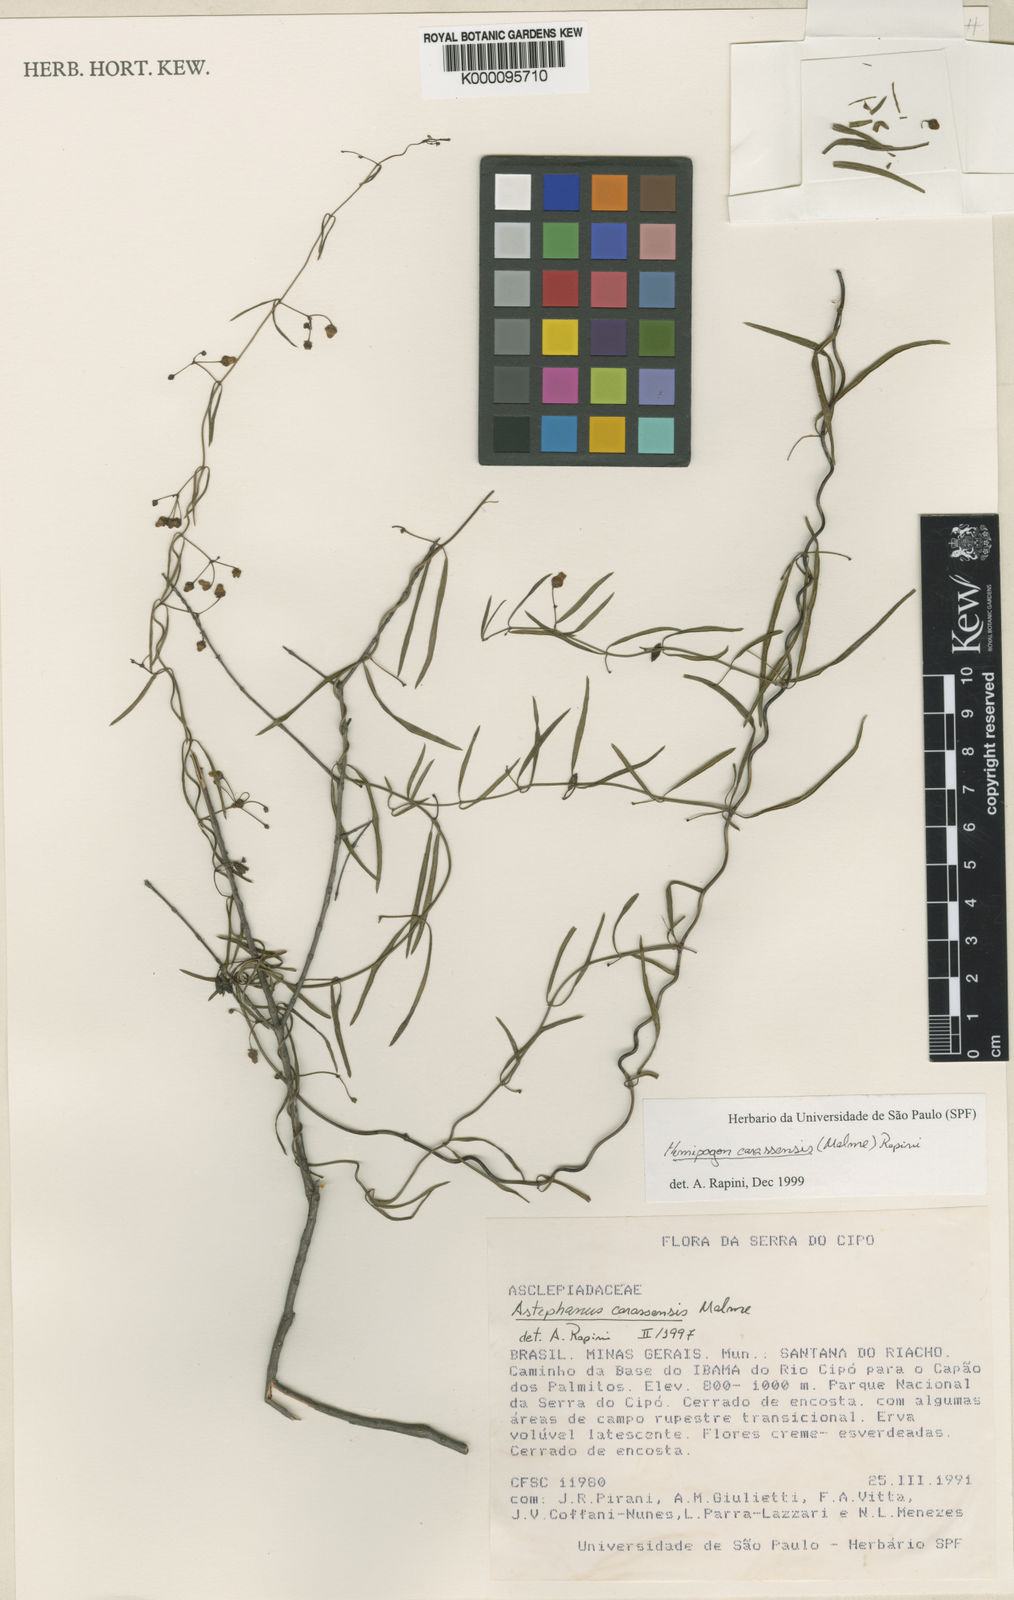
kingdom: Plantae
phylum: Tracheophyta
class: Magnoliopsida
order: Gentianales
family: Apocynaceae
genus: Morilloa
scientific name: Morilloa carassensis
